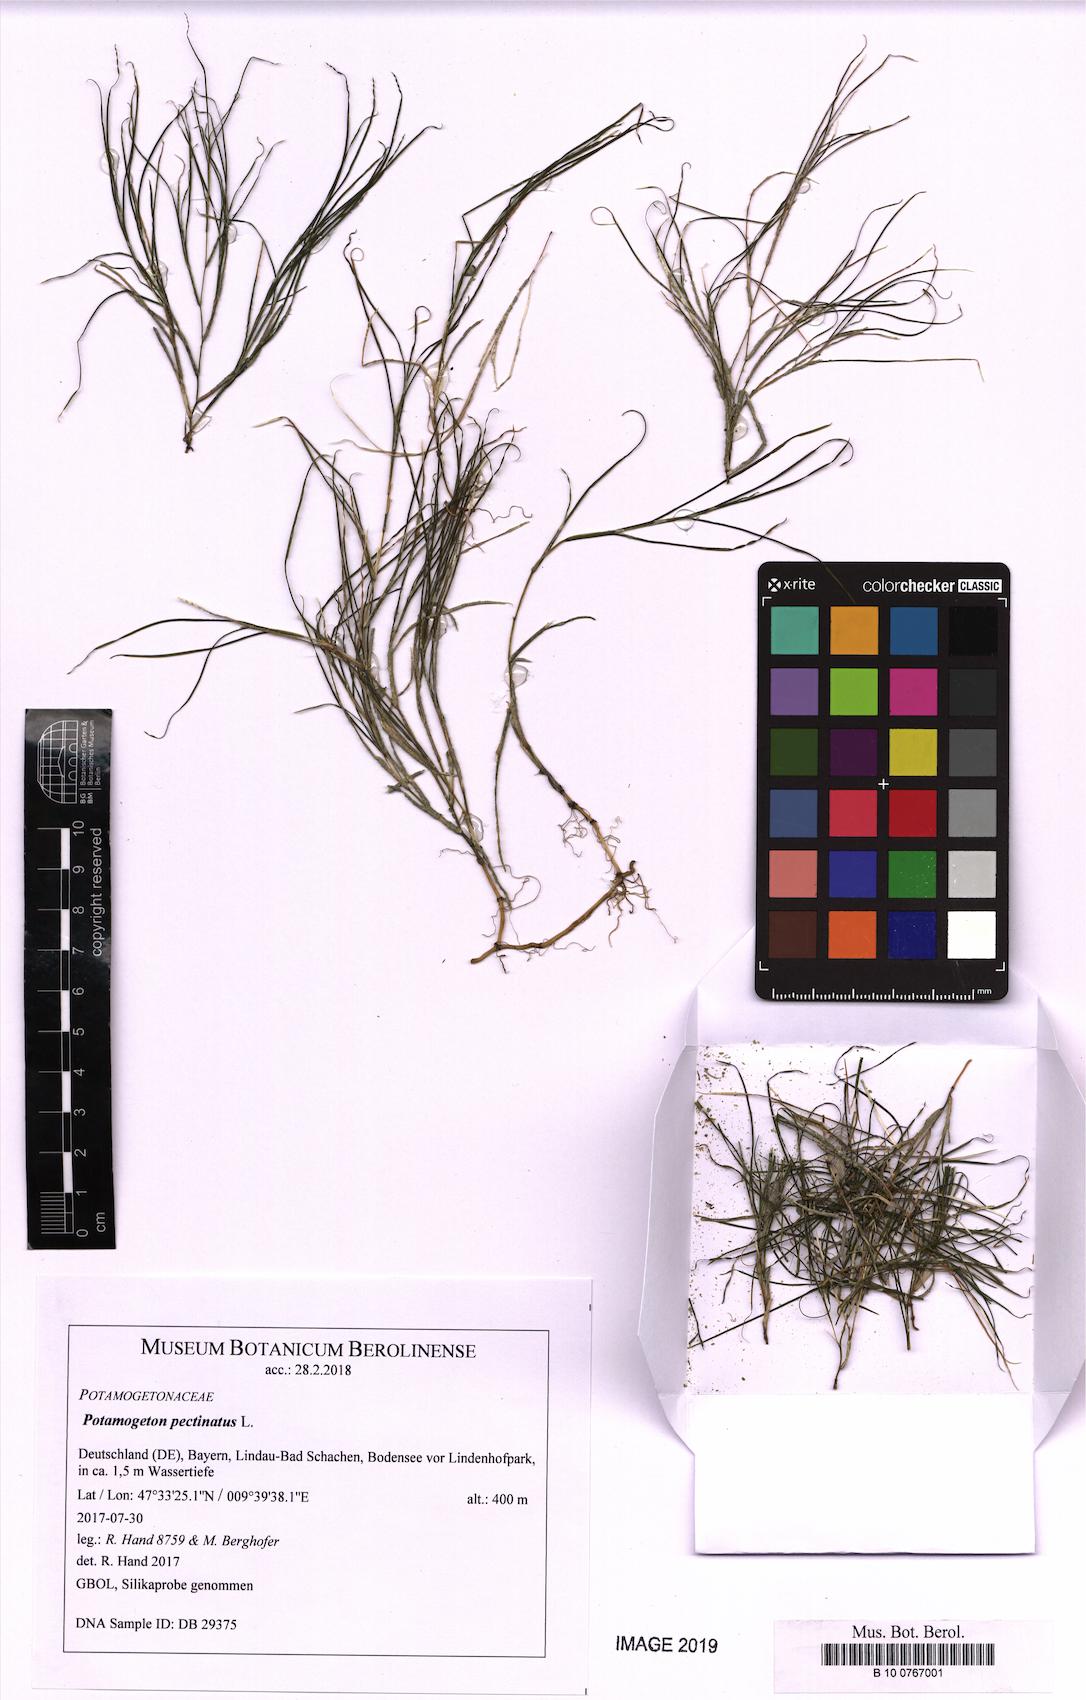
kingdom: Plantae
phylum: Tracheophyta
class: Liliopsida
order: Alismatales
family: Potamogetonaceae
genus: Stuckenia
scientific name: Stuckenia pectinata
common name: Sago pondweed
